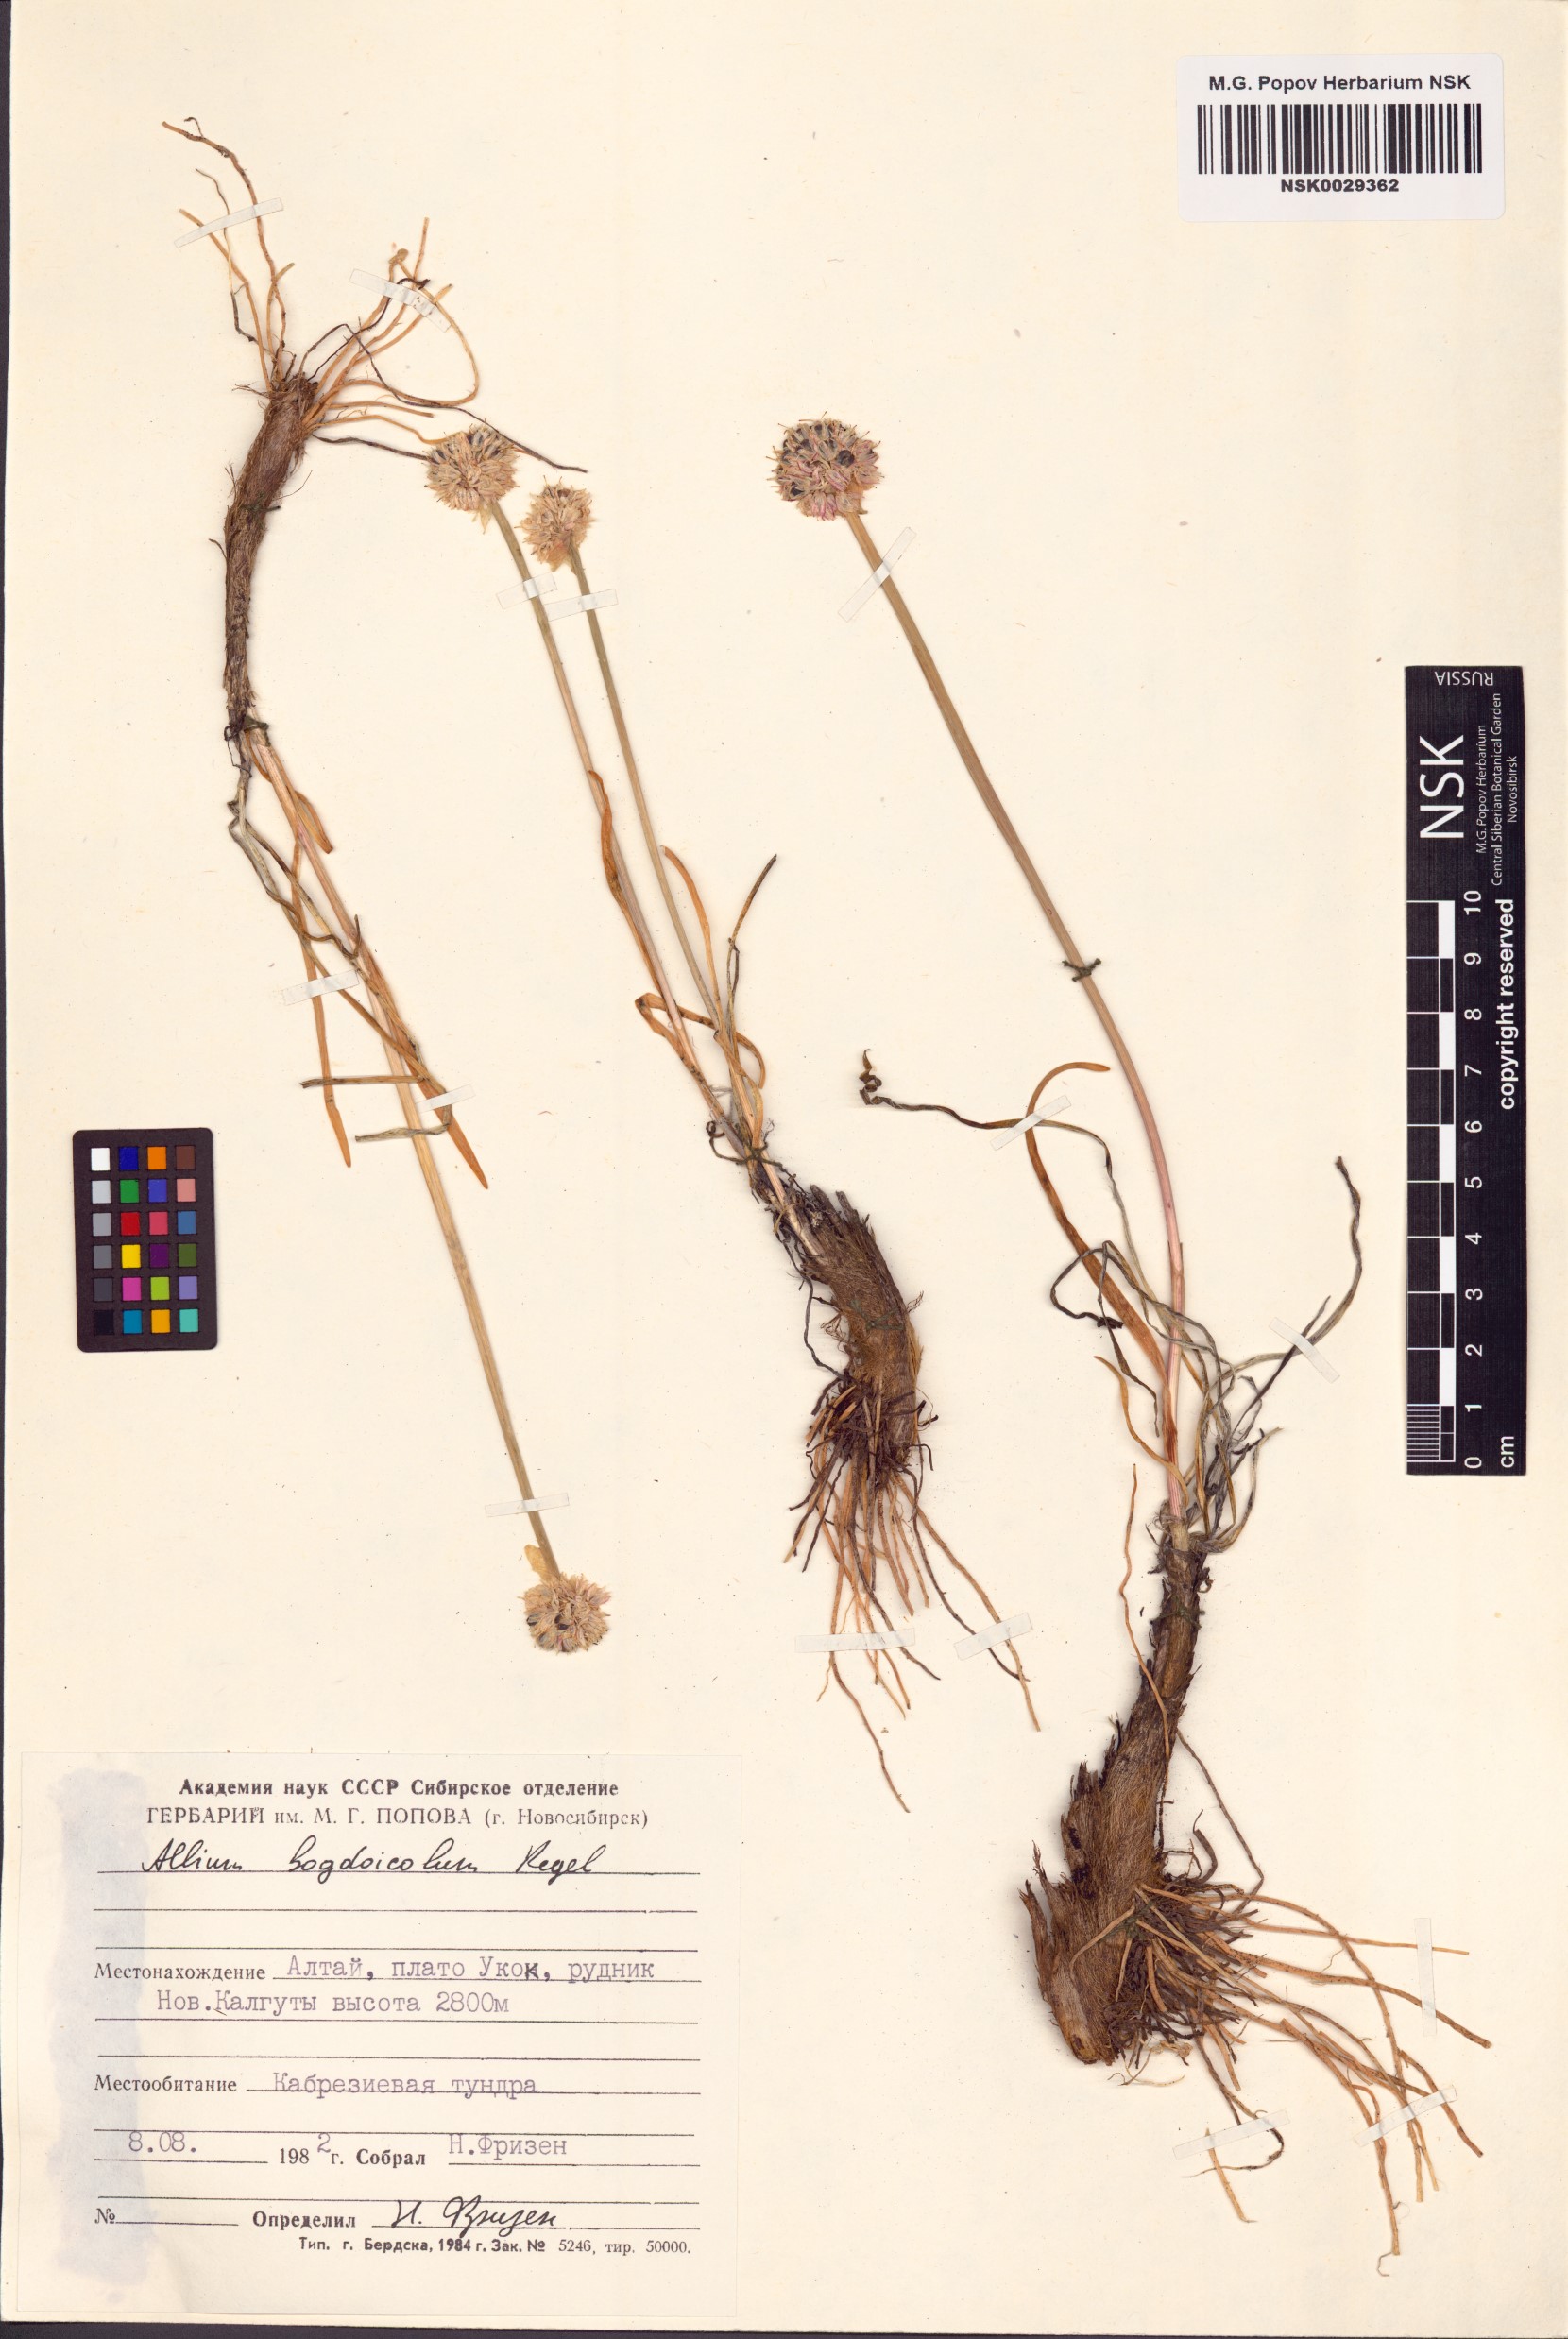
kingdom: Plantae
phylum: Tracheophyta
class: Liliopsida
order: Asparagales
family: Amaryllidaceae
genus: Allium
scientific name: Allium schrenkii
